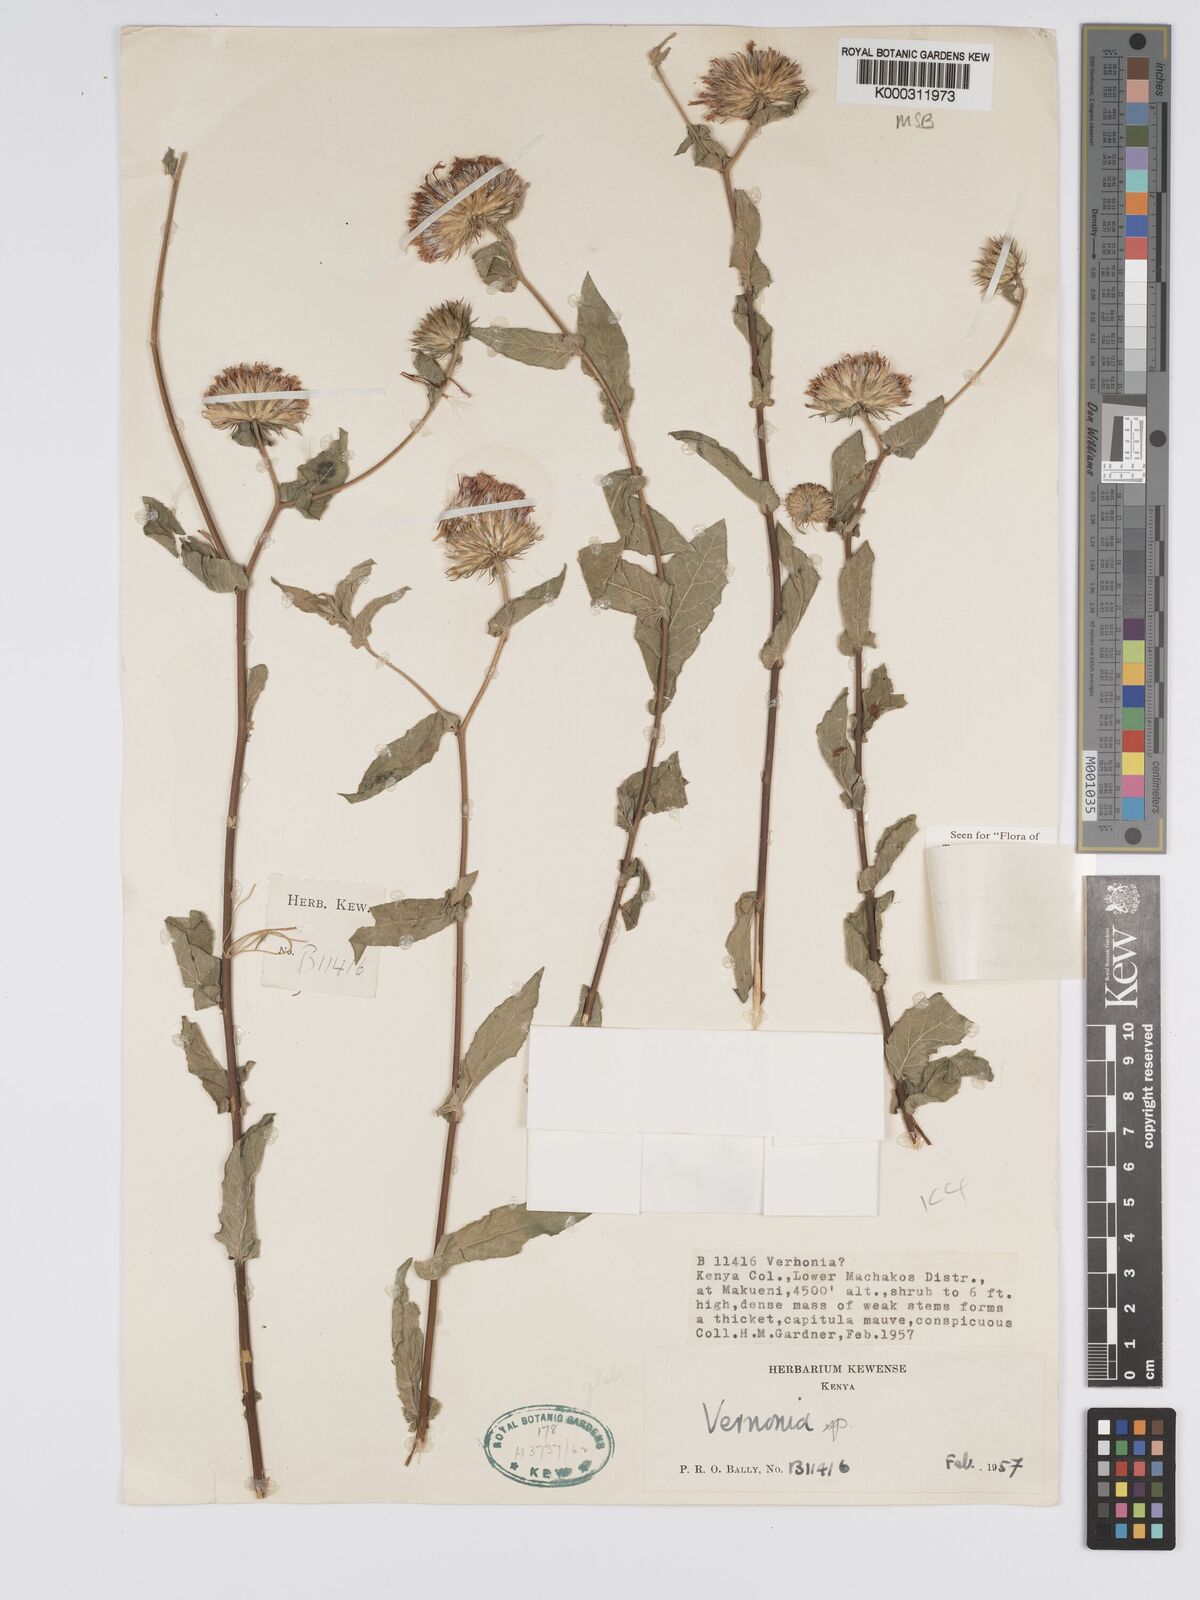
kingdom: Plantae
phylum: Tracheophyta
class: Magnoliopsida
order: Asterales
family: Asteraceae
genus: Vernonia
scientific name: Vernonia fischeri
